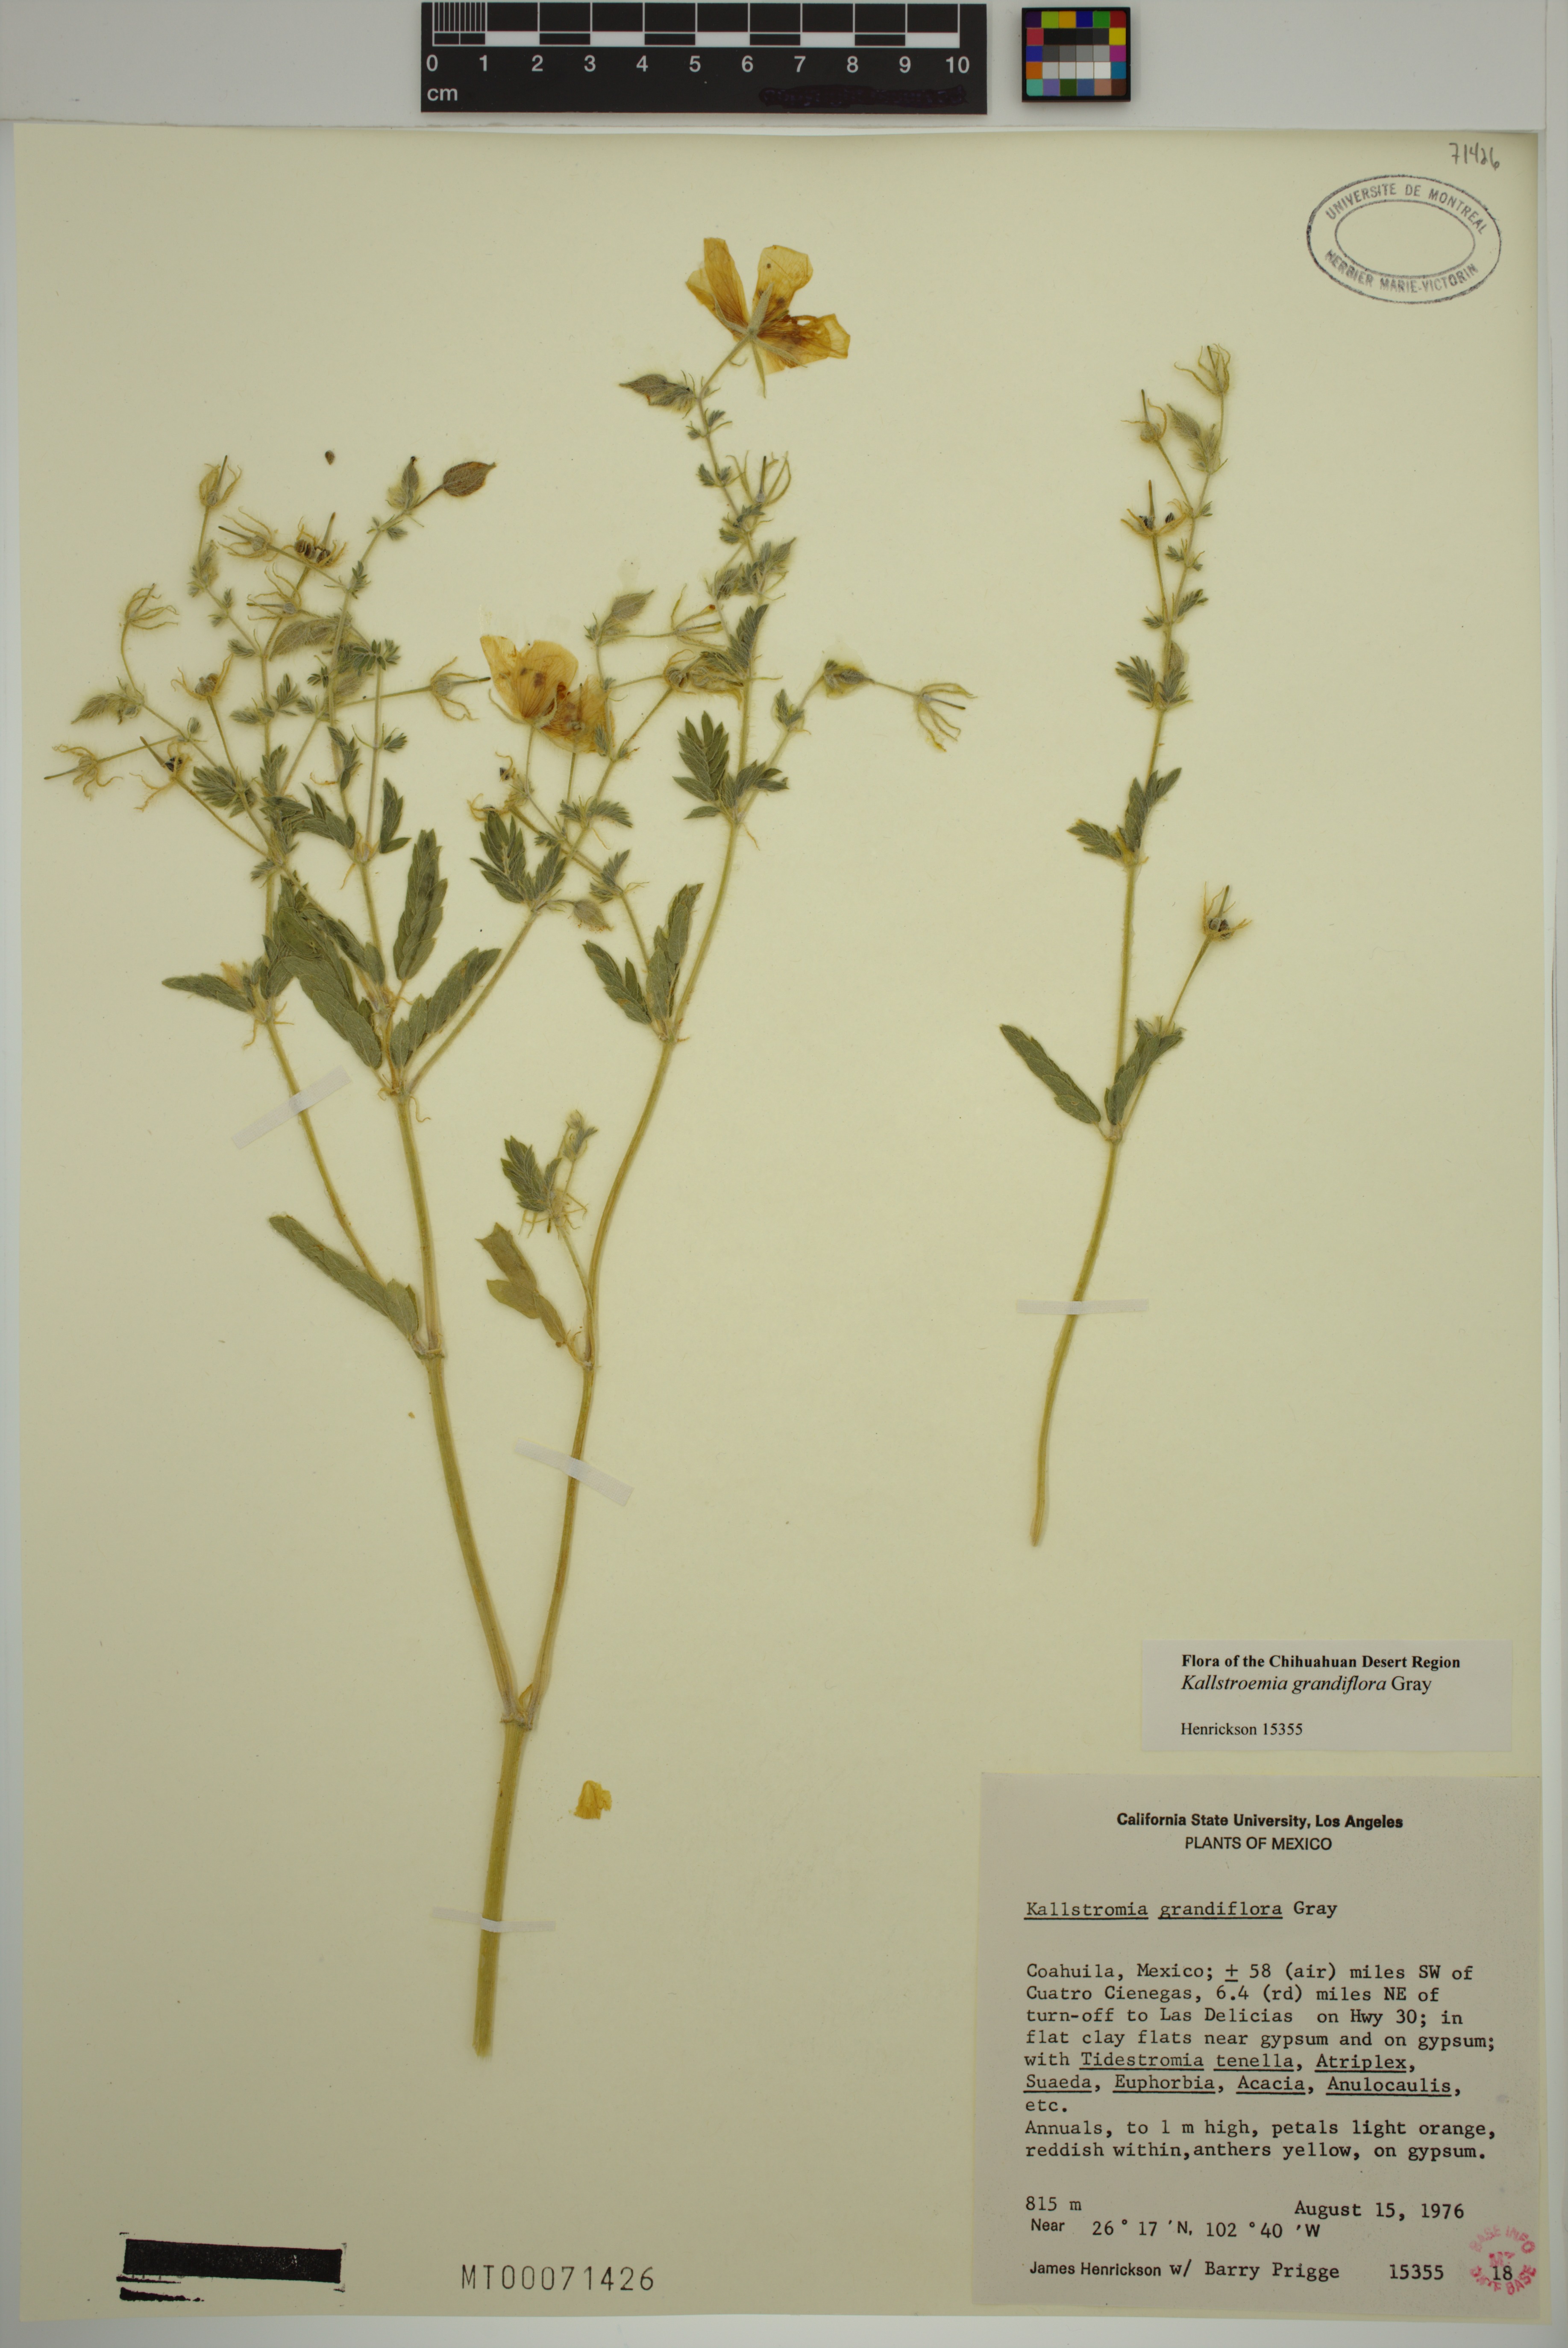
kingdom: Plantae
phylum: Tracheophyta
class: Magnoliopsida
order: Zygophyllales
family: Zygophyllaceae
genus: Kallstroemia
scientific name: Kallstroemia grandiflora
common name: Arizona-poppy
